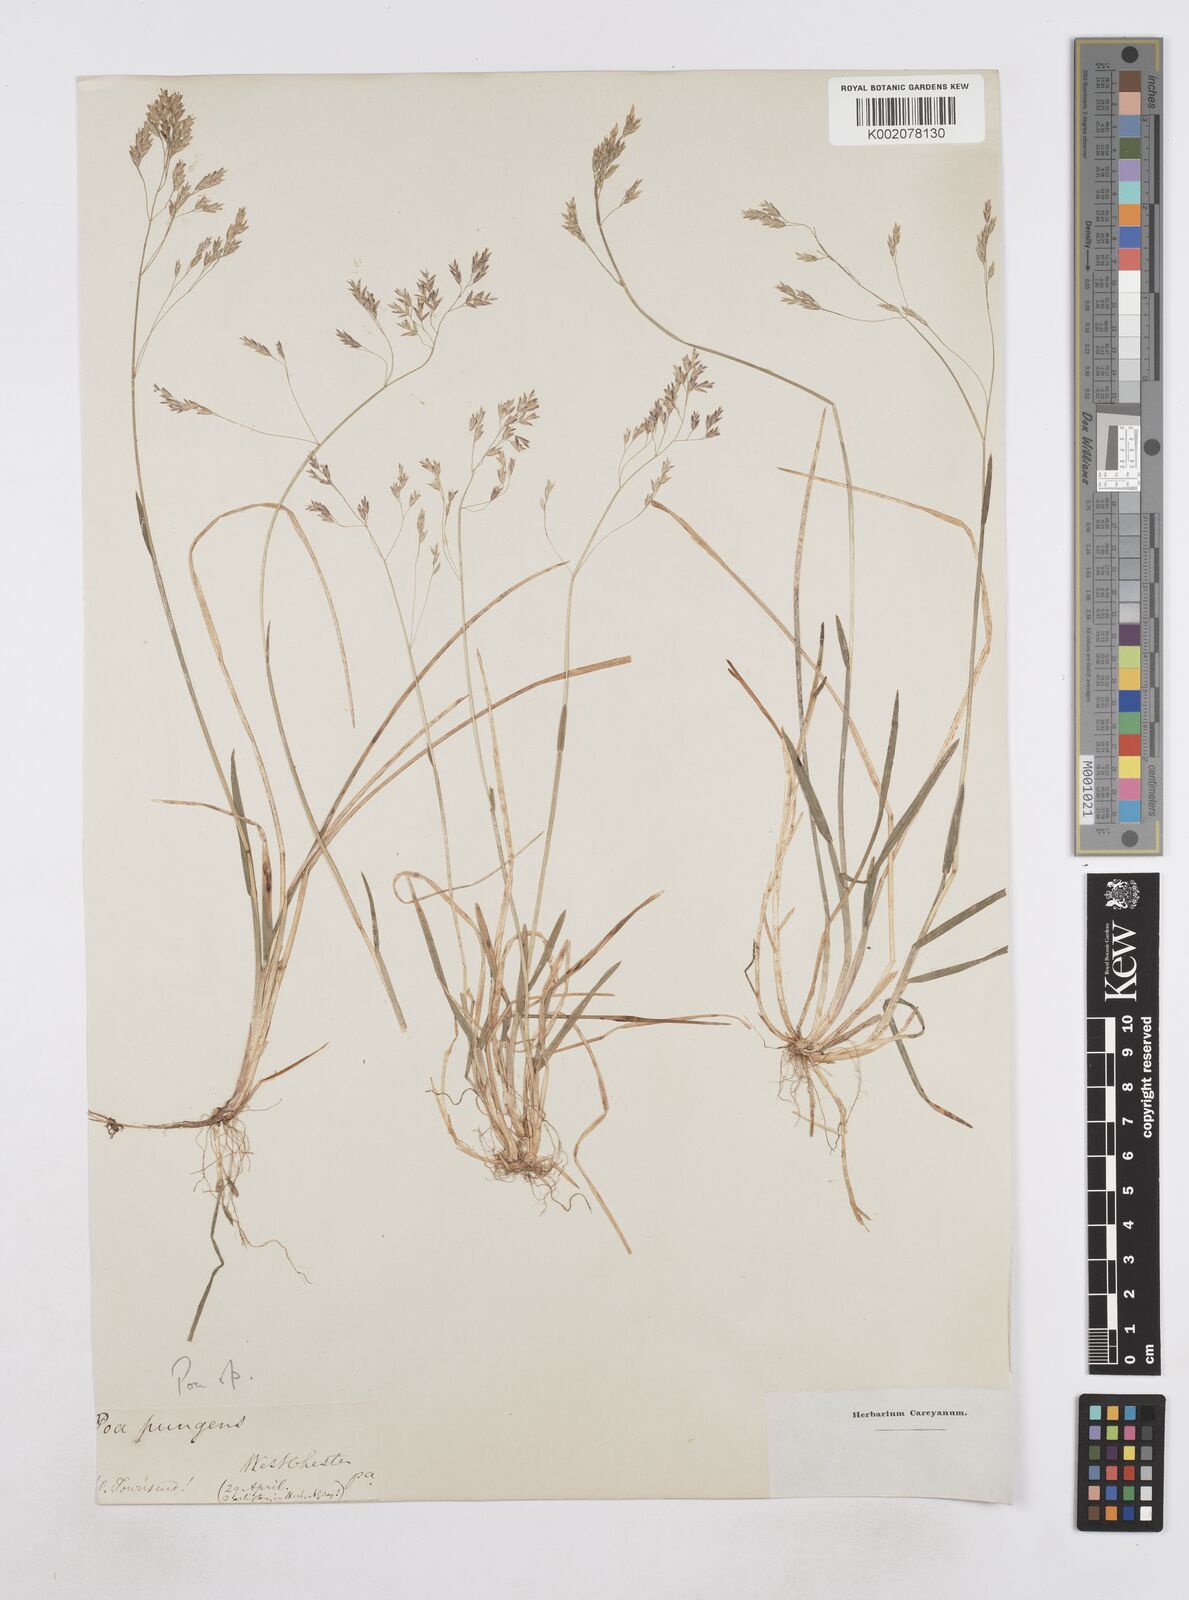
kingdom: Plantae
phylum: Tracheophyta
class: Liliopsida
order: Poales
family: Poaceae
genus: Poa
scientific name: Poa
